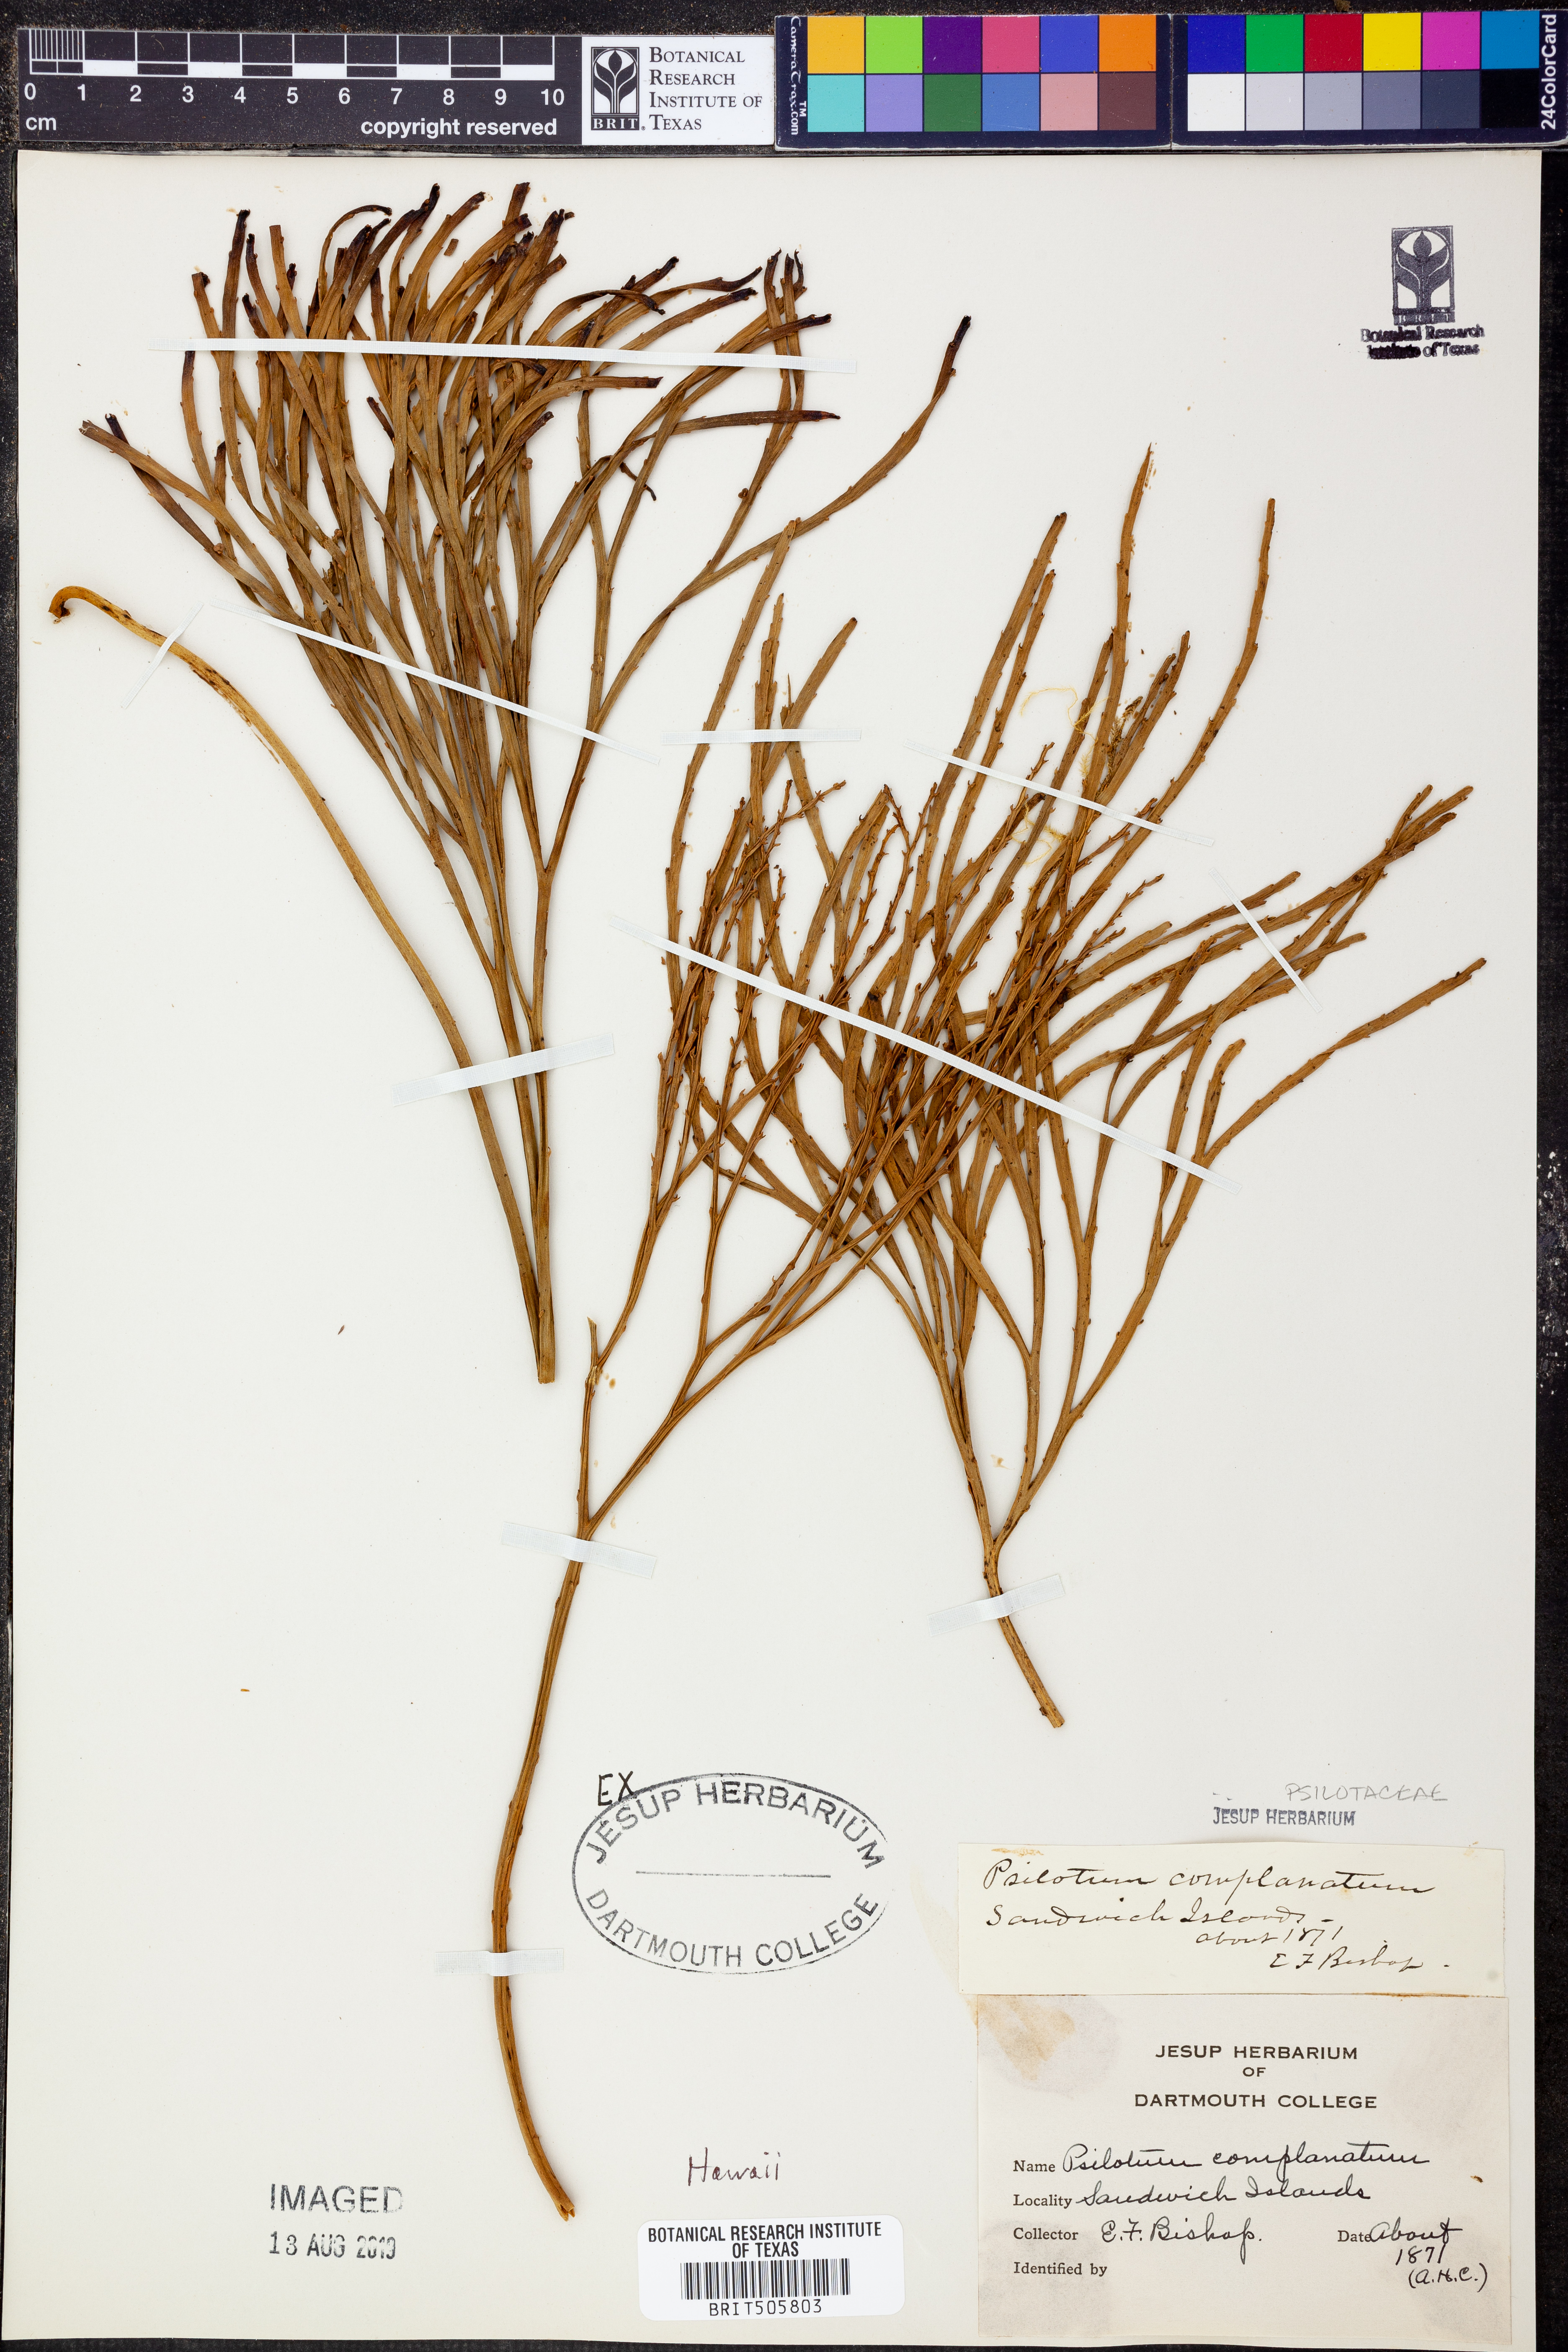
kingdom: Plantae
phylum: Tracheophyta
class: Polypodiopsida
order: Psilotales
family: Psilotaceae
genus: Psilotum
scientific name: Psilotum complanatum
